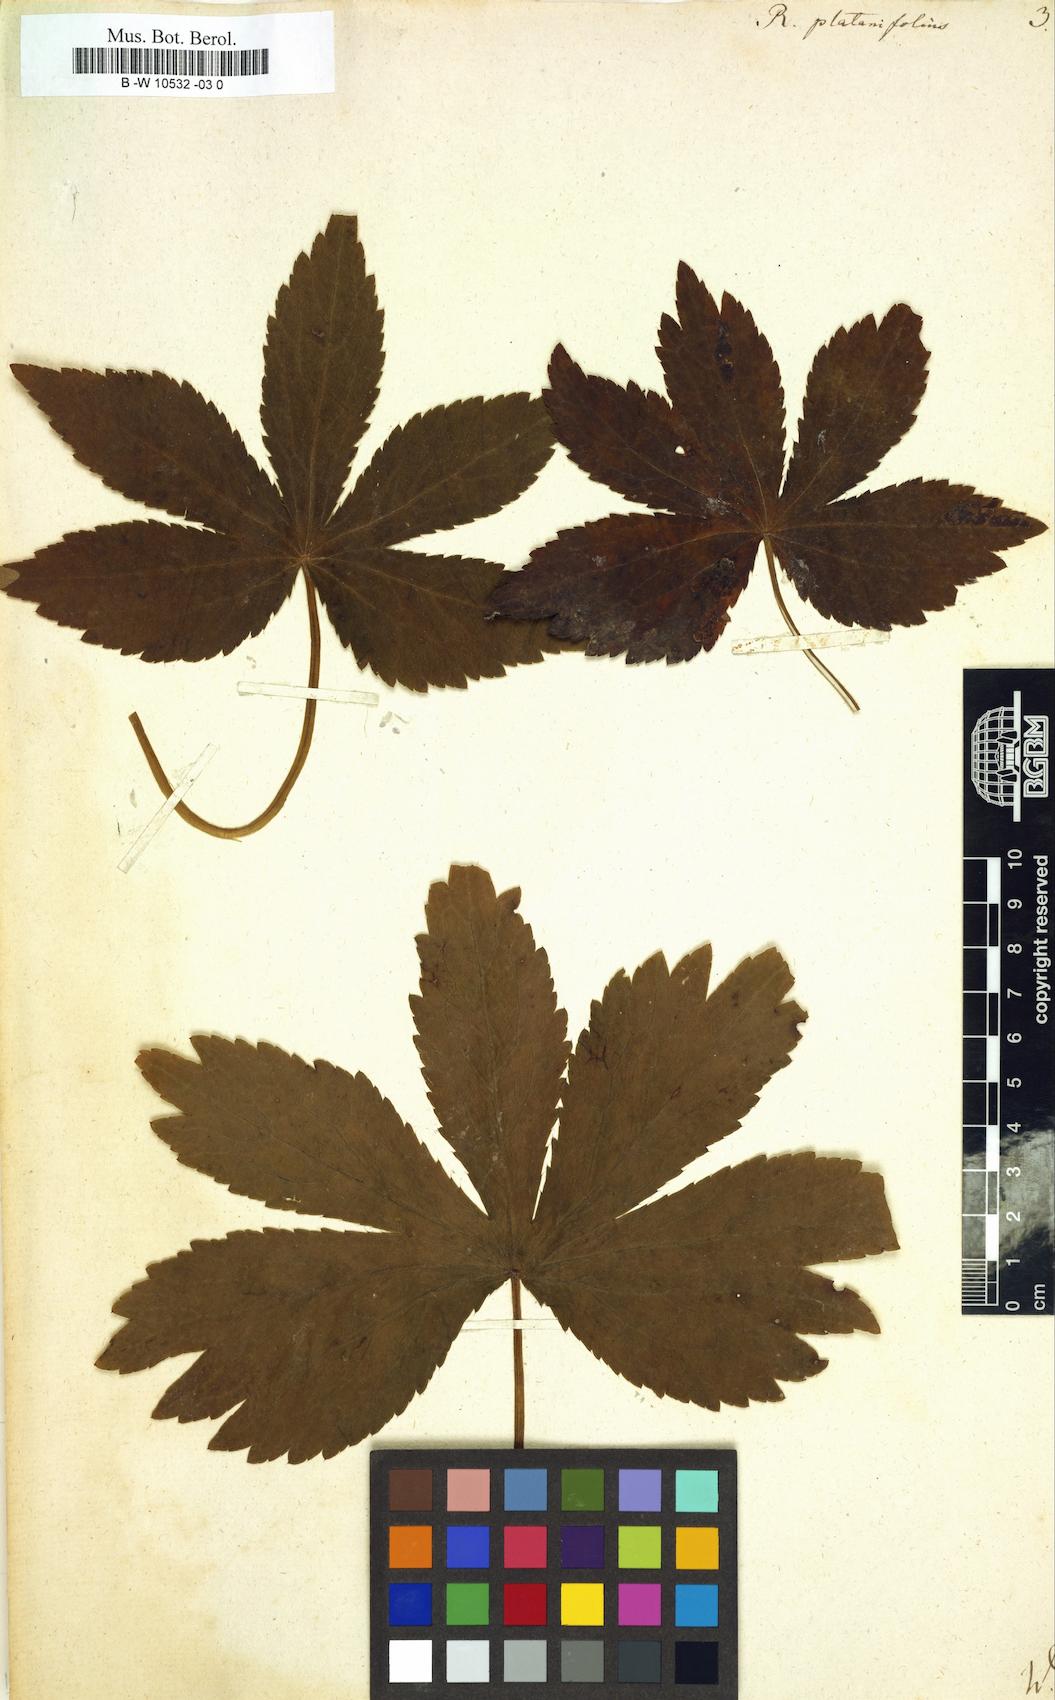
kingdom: Plantae
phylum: Tracheophyta
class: Magnoliopsida
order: Ranunculales
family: Ranunculaceae
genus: Ranunculus
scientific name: Ranunculus platanifolius
